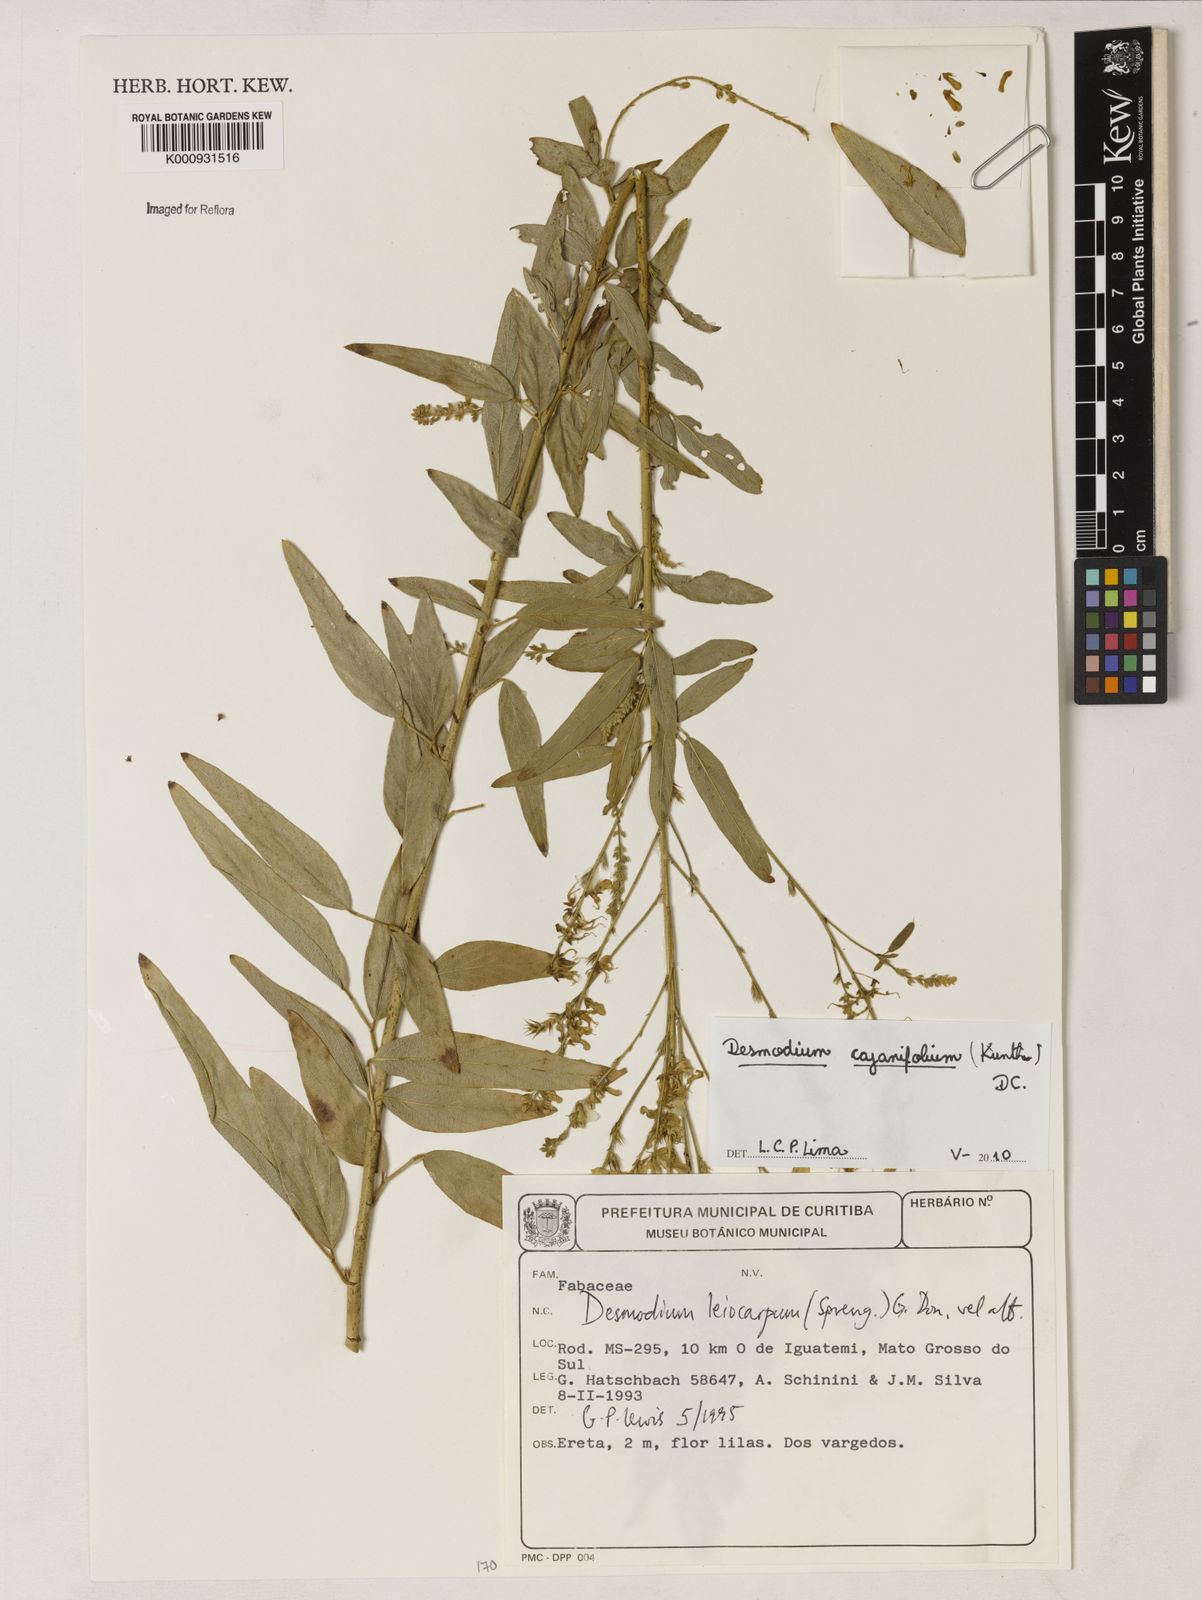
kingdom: Plantae
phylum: Tracheophyta
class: Magnoliopsida
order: Fabales
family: Fabaceae
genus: Desmodium
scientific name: Desmodium cajanifolium
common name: Tropical ticktrefoil
